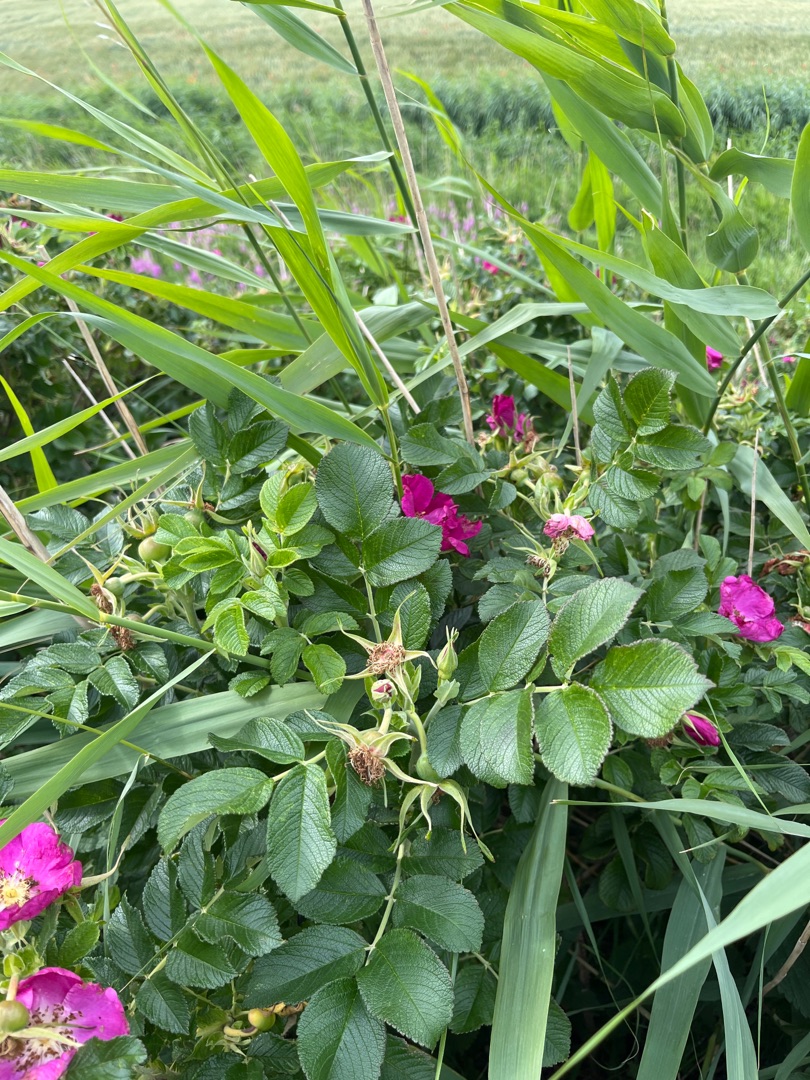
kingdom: Plantae
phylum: Tracheophyta
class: Magnoliopsida
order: Rosales
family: Rosaceae
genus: Rosa
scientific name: Rosa rugosa
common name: Rynket rose
